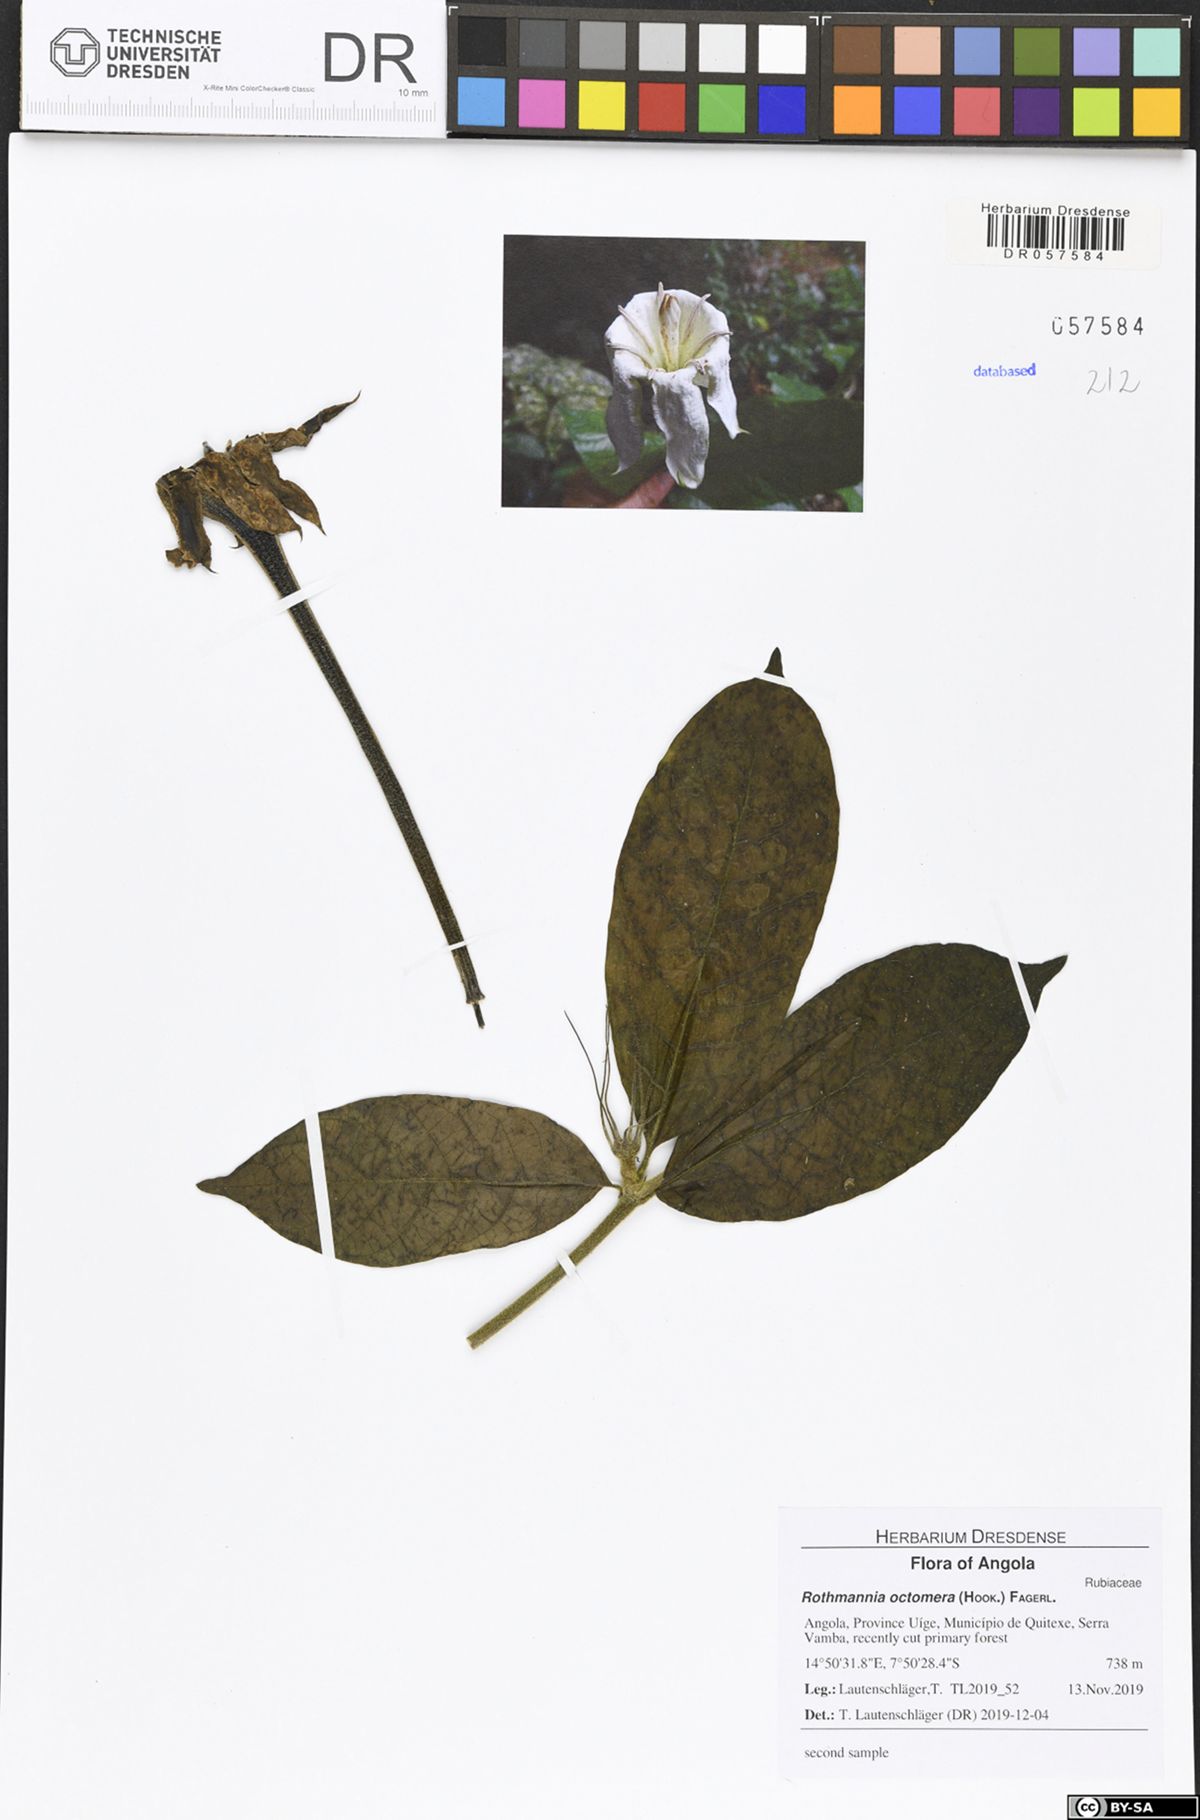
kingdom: Plantae
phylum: Tracheophyta
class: Magnoliopsida
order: Gentianales
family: Rubiaceae
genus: Rothmannia
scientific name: Rothmannia octomera
